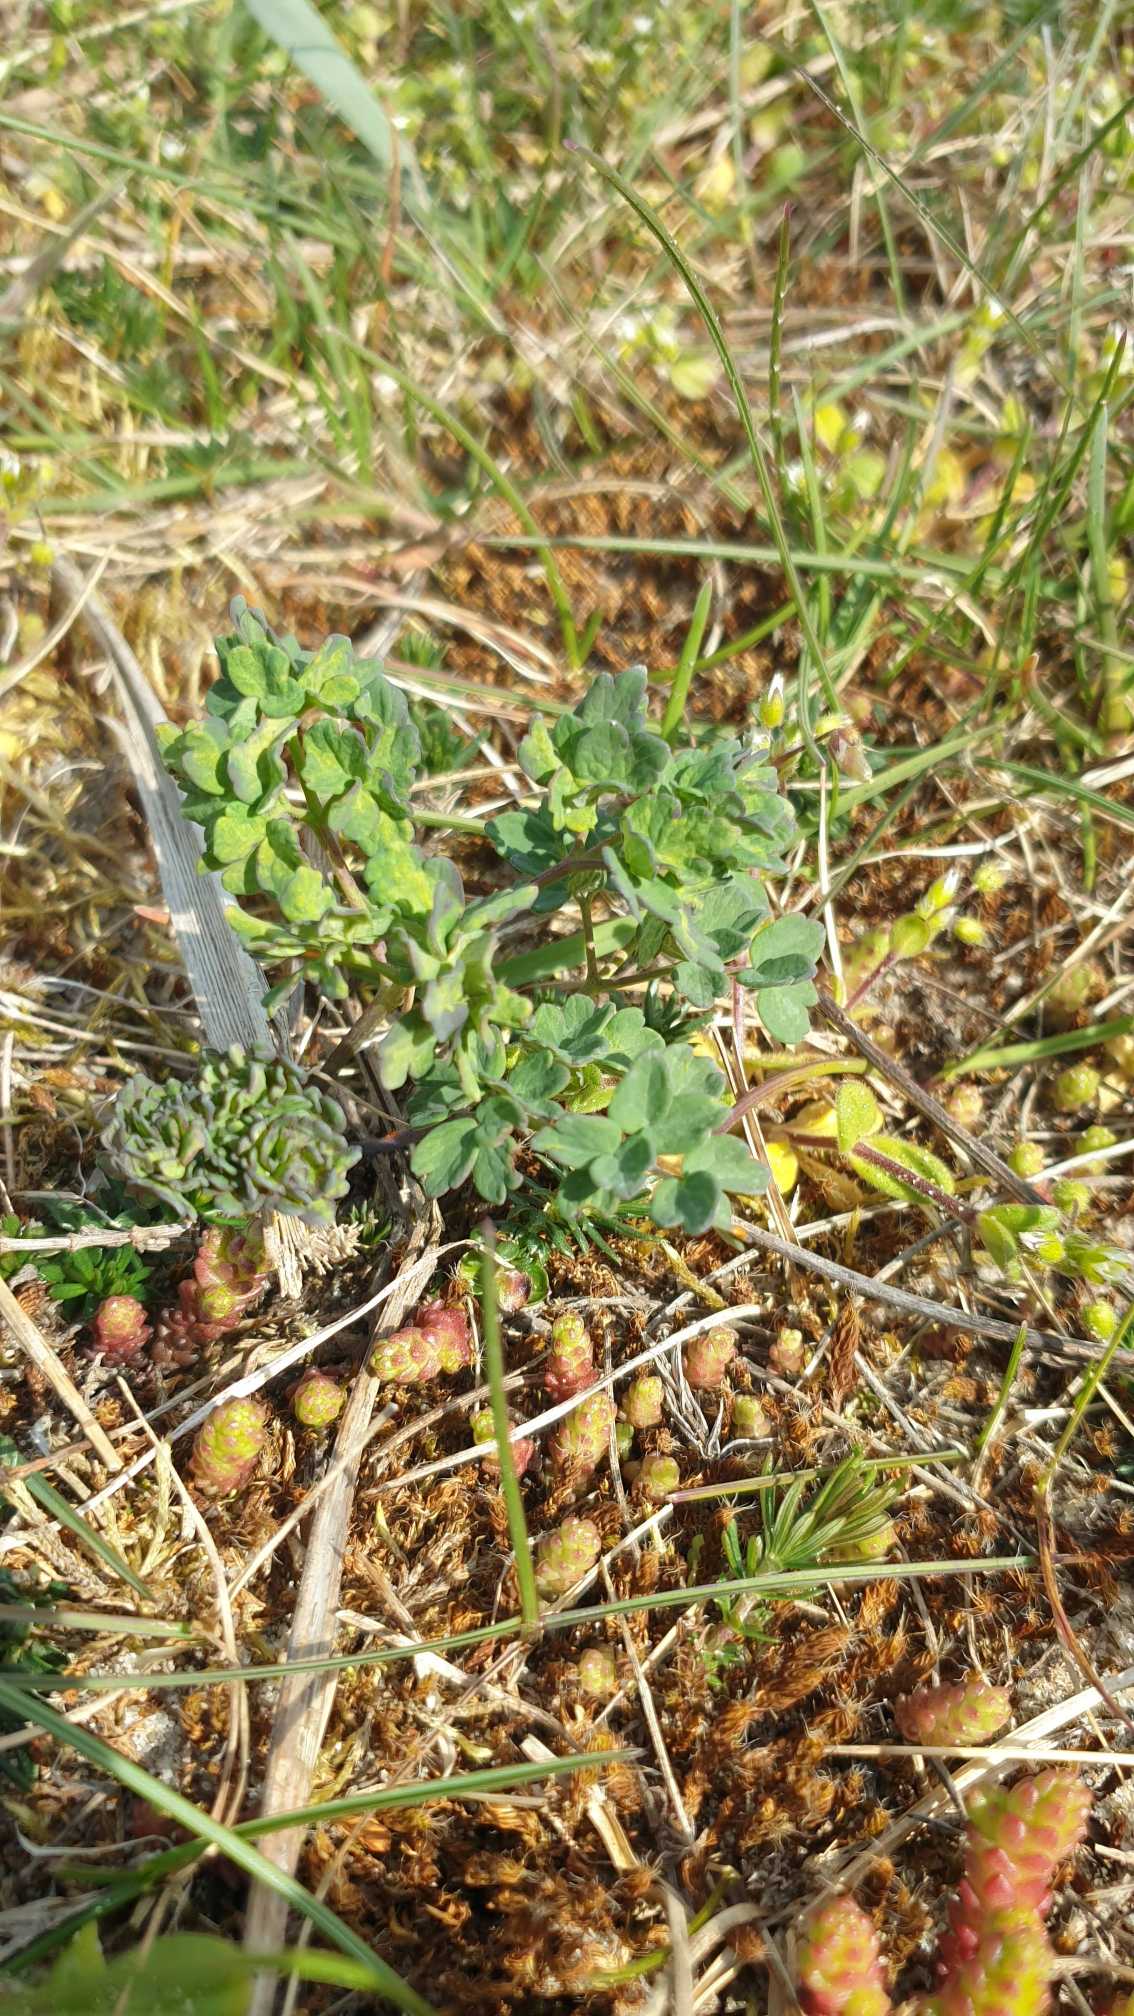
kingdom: Plantae
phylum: Tracheophyta
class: Magnoliopsida
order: Ranunculales
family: Ranunculaceae
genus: Thalictrum
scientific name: Thalictrum minus
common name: Sand-frøstjerne
